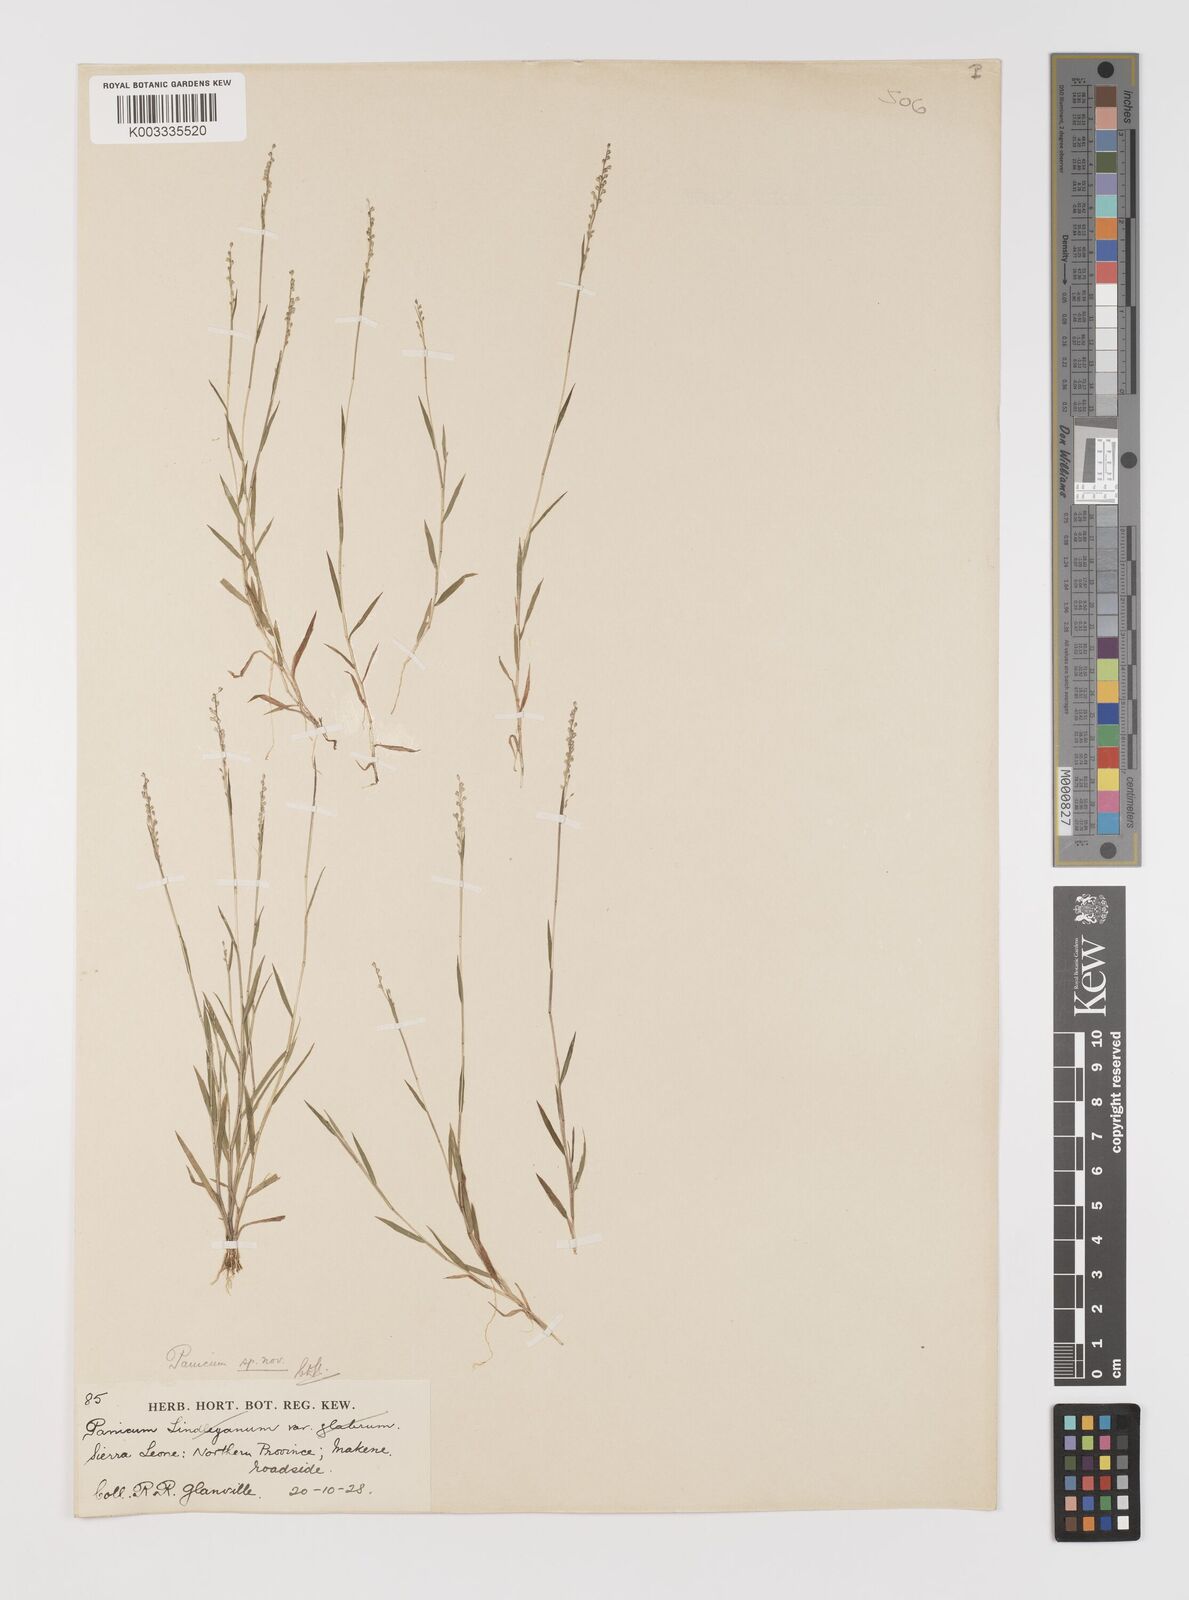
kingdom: Plantae
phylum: Tracheophyta
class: Liliopsida
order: Poales
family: Poaceae
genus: Trichanthecium
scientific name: Trichanthecium tenellum
